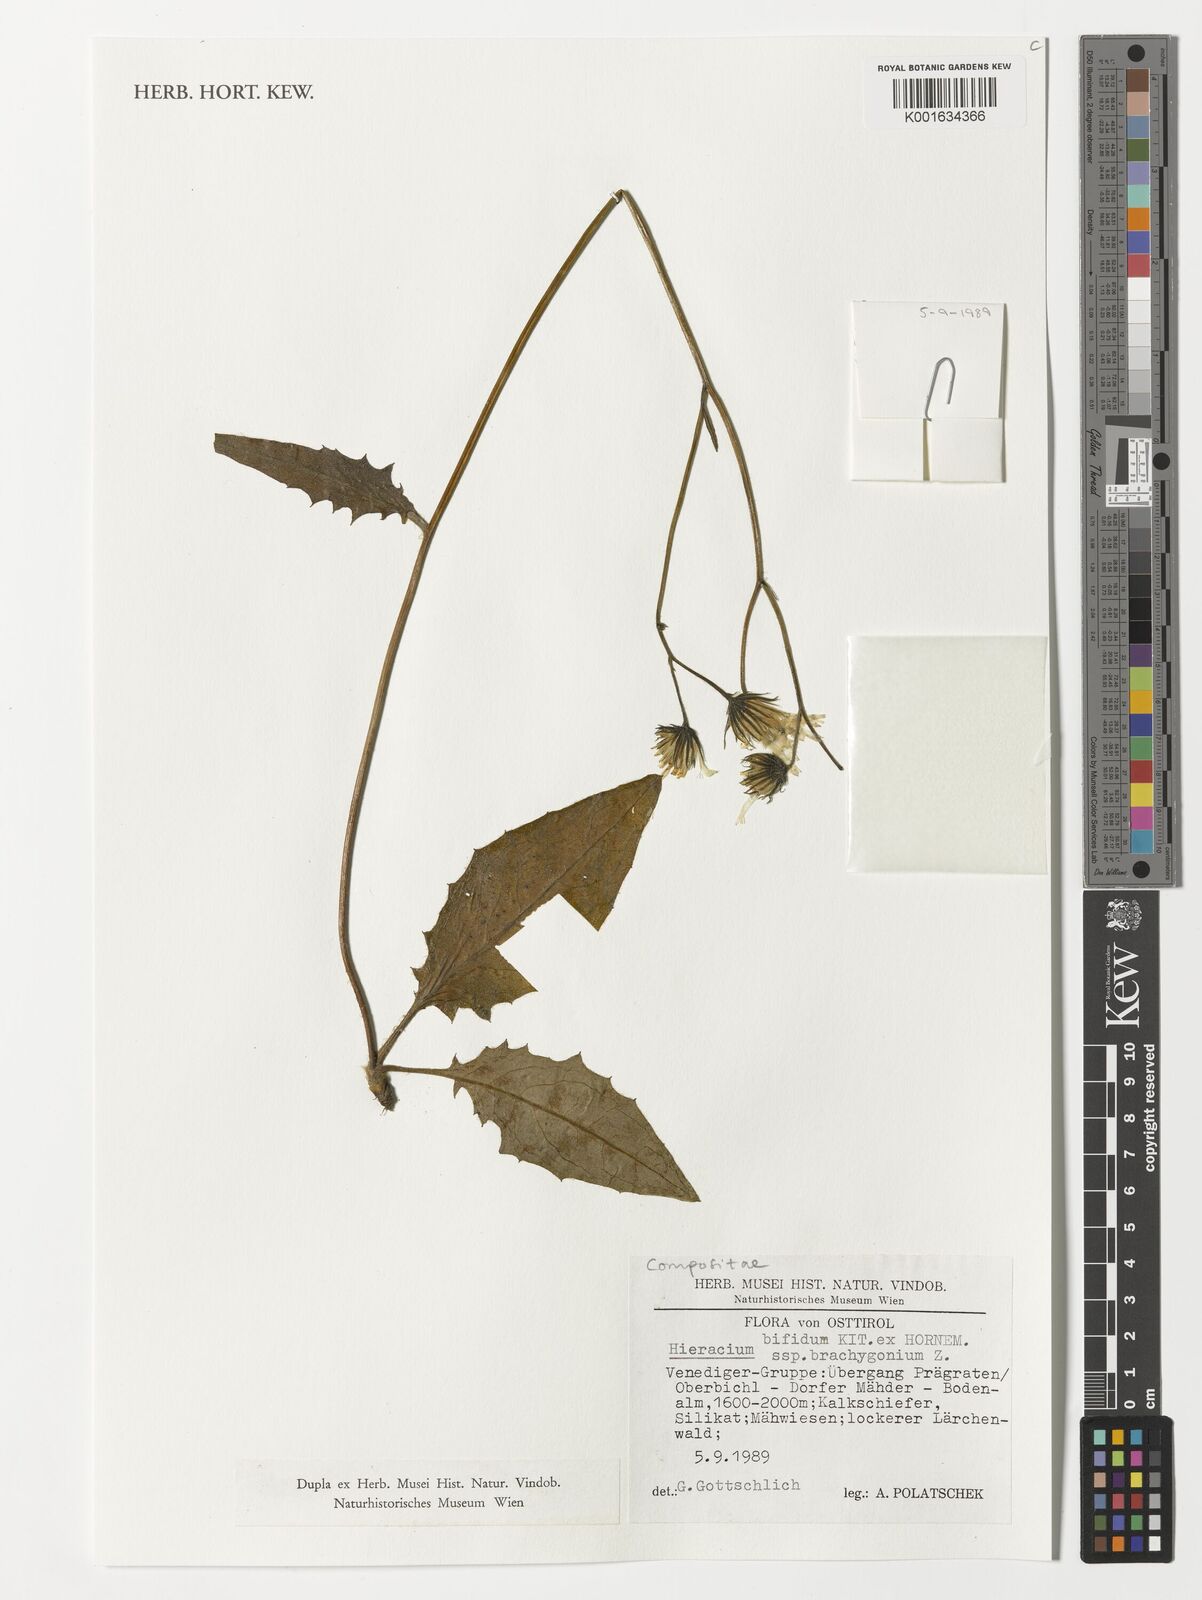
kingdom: Plantae
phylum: Tracheophyta
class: Magnoliopsida
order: Asterales
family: Asteraceae
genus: Hieracium
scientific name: Hieracium bifidum
